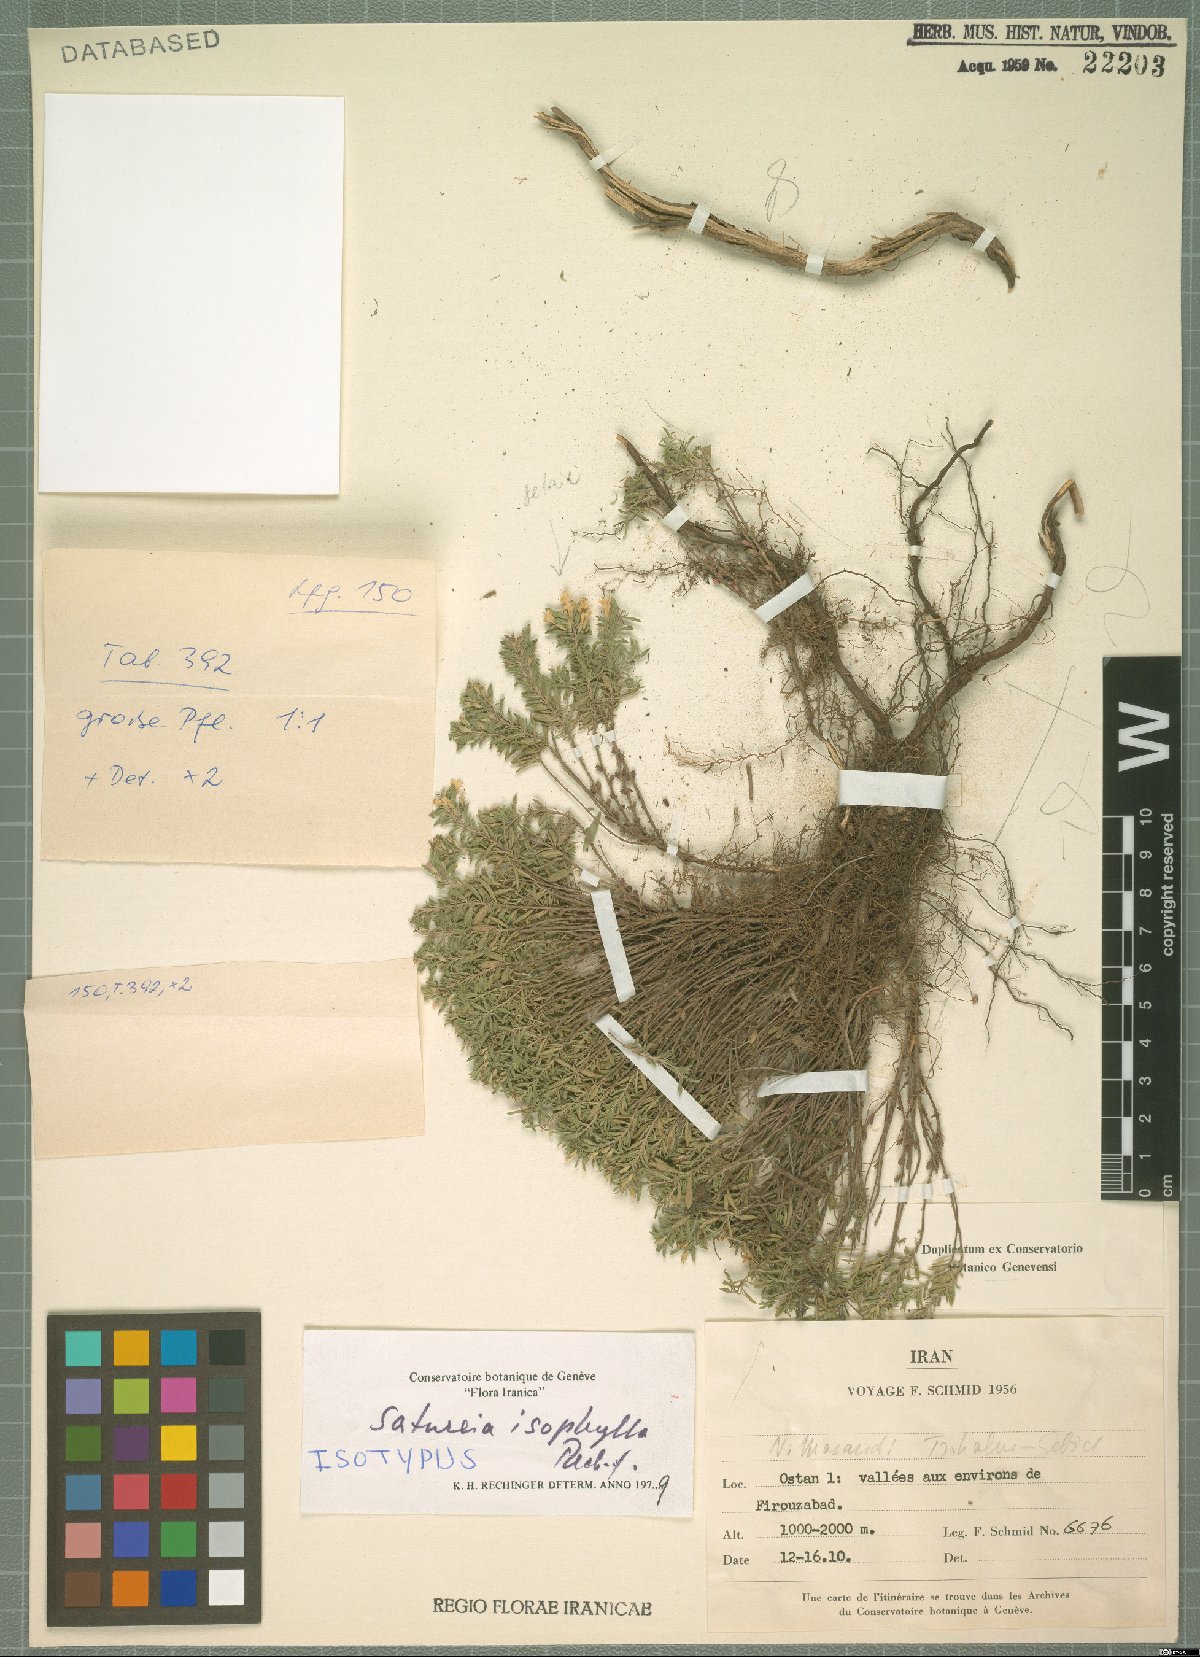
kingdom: Plantae
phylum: Tracheophyta
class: Magnoliopsida
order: Lamiales
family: Lamiaceae
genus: Satureja
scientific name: Satureja isophylla
